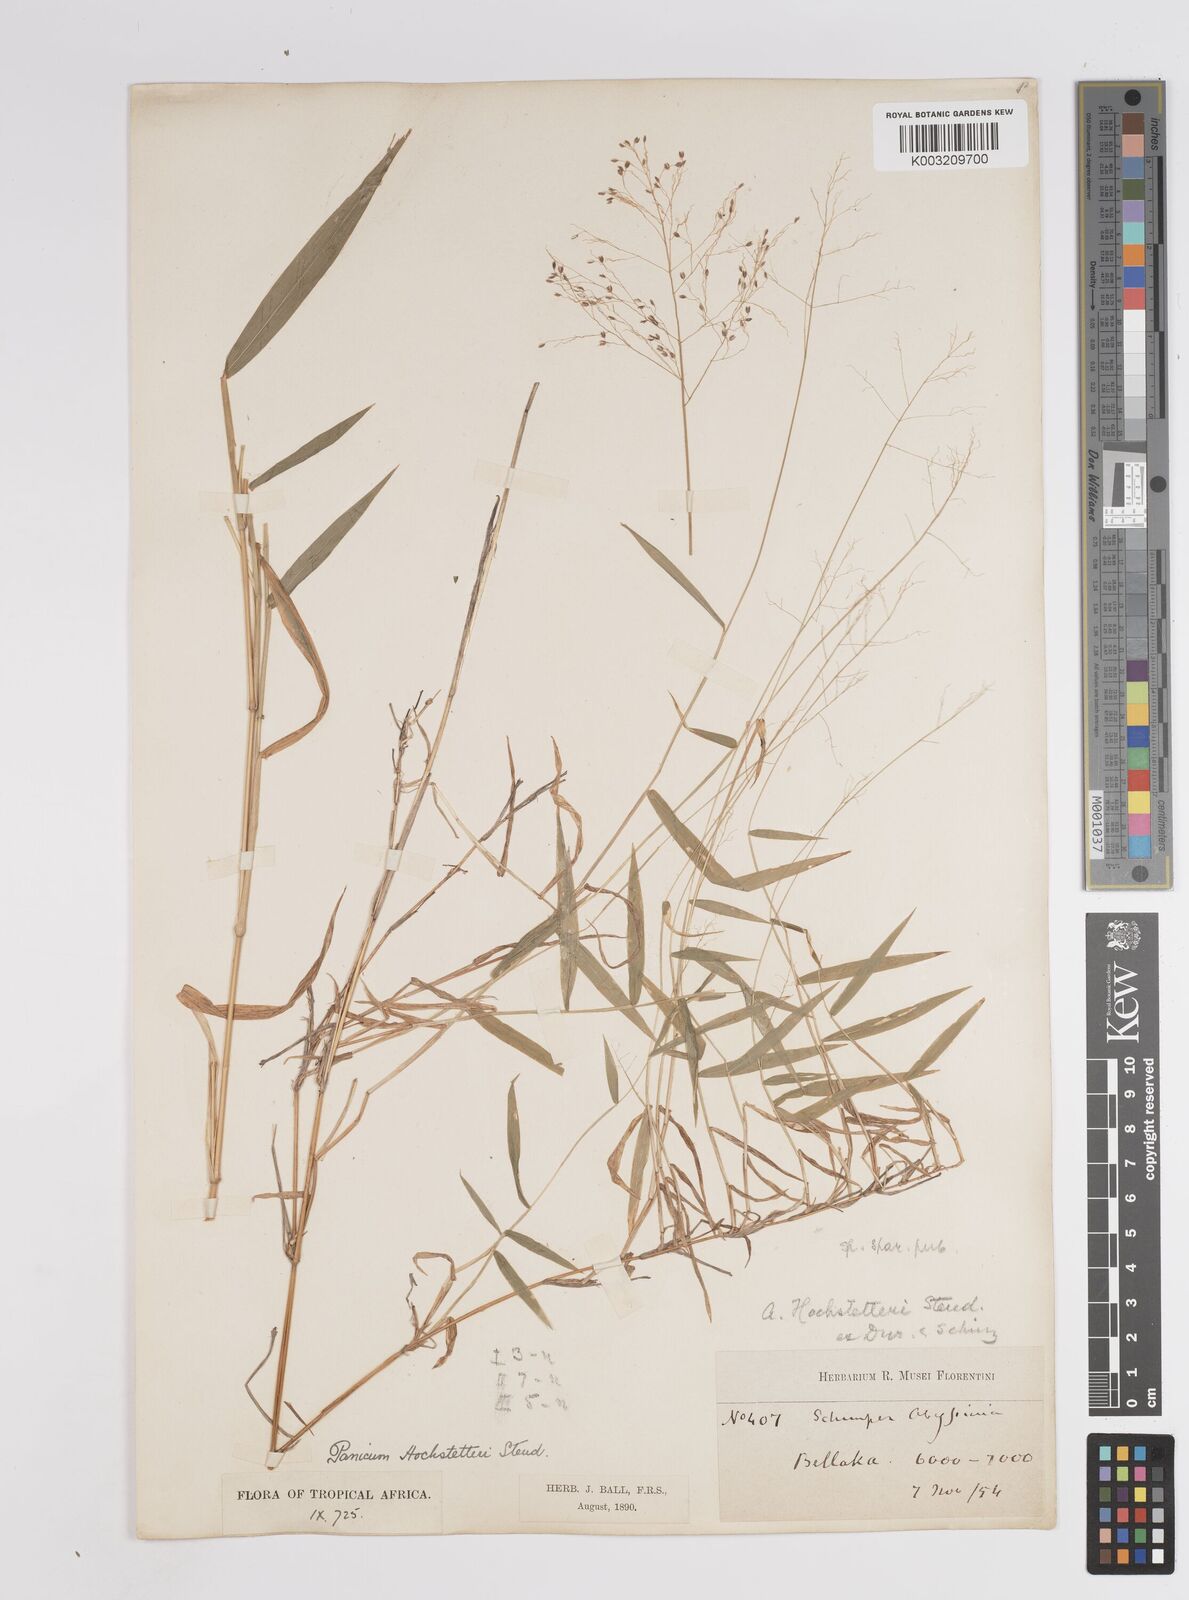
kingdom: Plantae
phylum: Tracheophyta
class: Liliopsida
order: Poales
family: Poaceae
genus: Panicum
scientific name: Panicum hochstetteri
